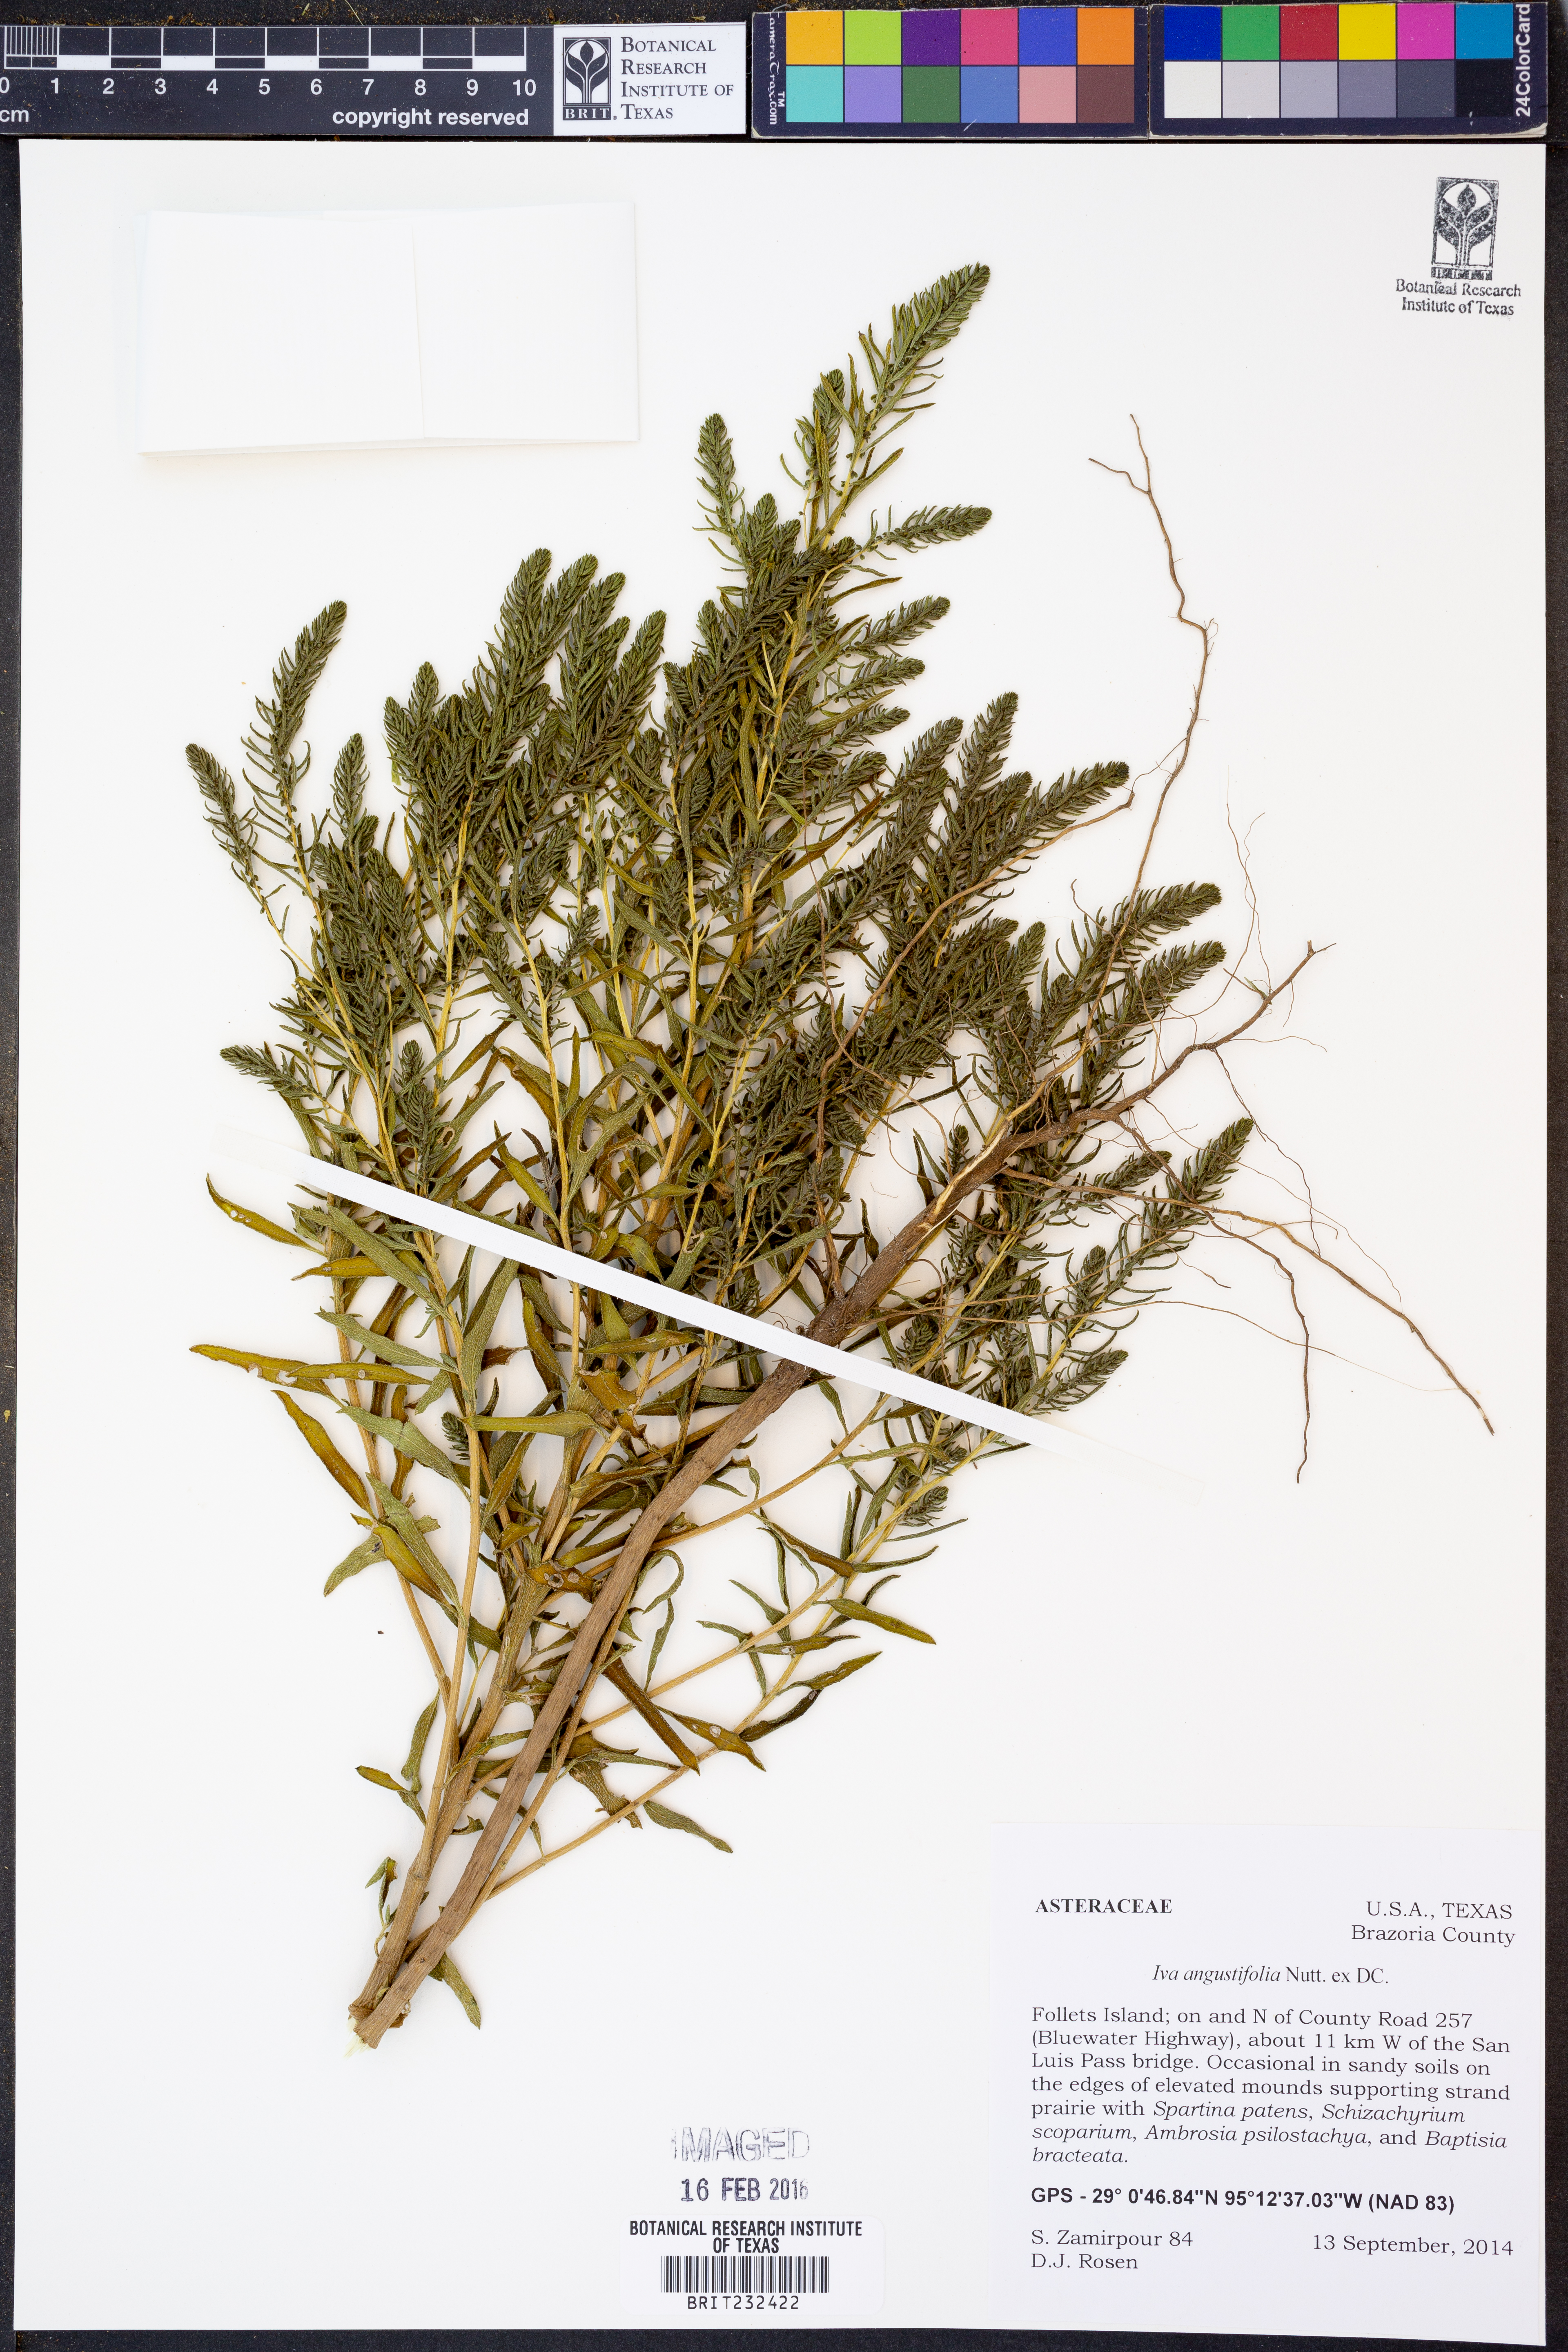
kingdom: Plantae
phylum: Tracheophyta
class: Magnoliopsida
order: Asterales
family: Asteraceae
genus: Iva
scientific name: Iva asperifolia
